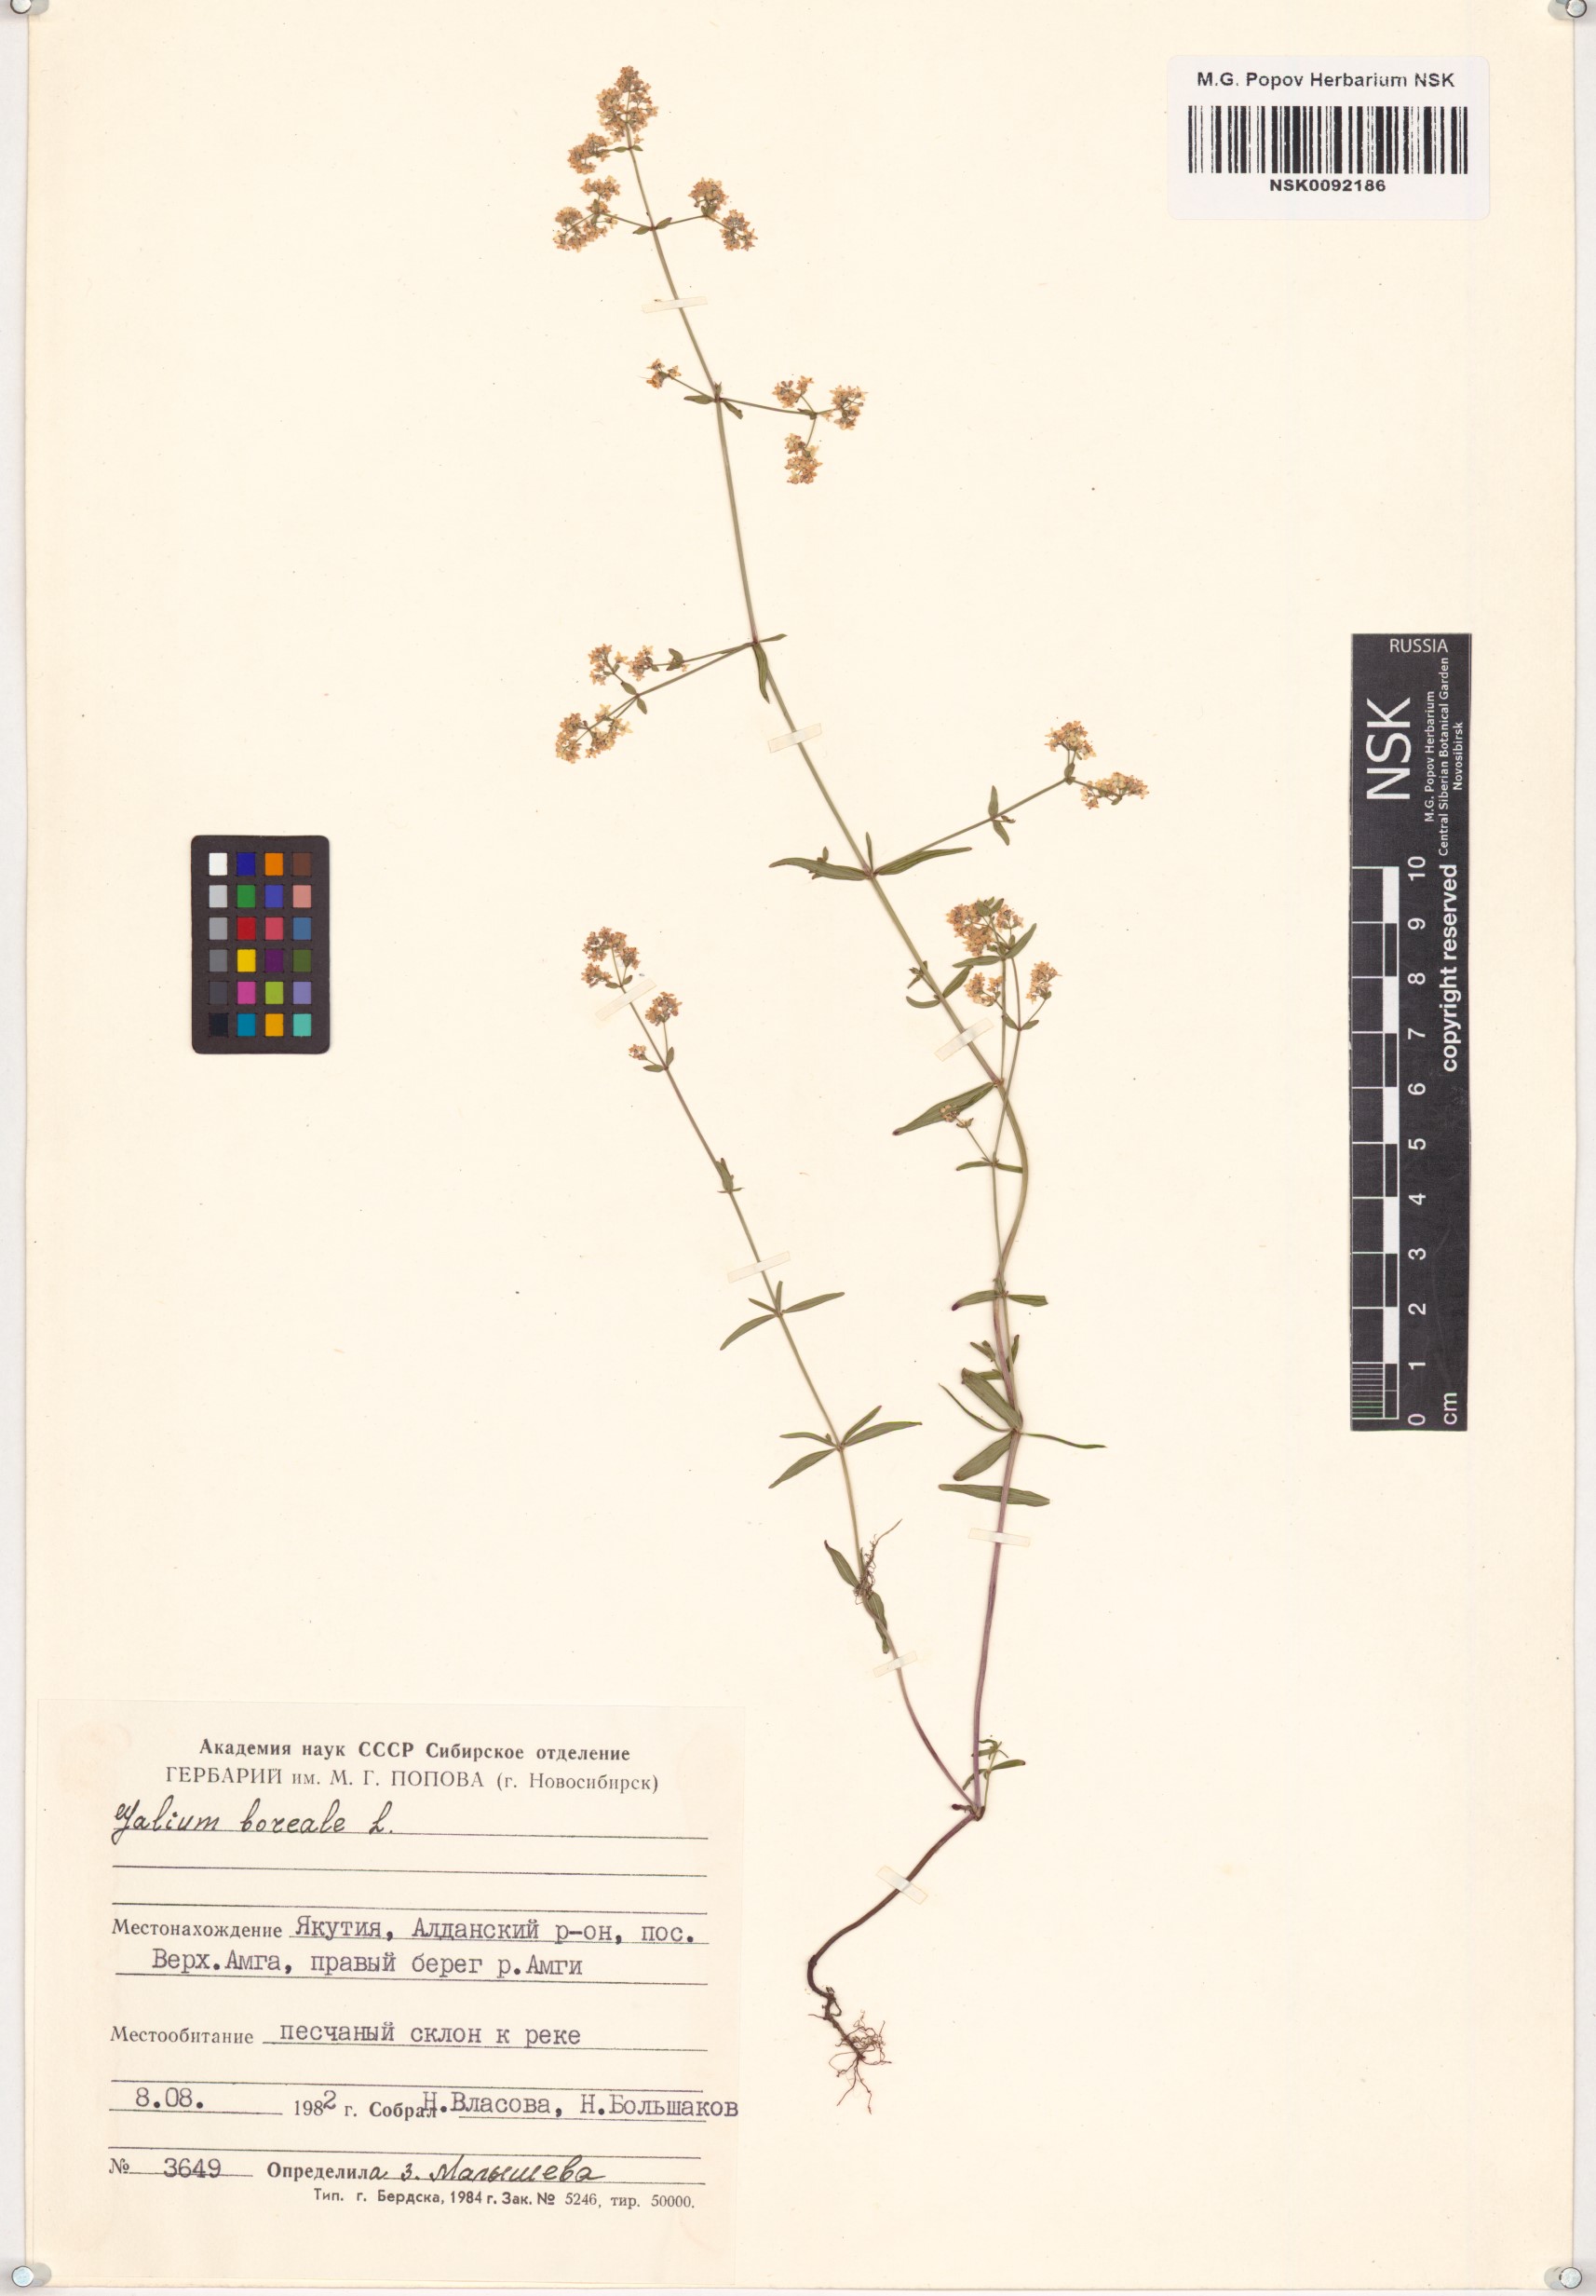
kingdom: Plantae
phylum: Tracheophyta
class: Magnoliopsida
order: Gentianales
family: Rubiaceae
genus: Galium
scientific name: Galium boreale
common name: Northern bedstraw
